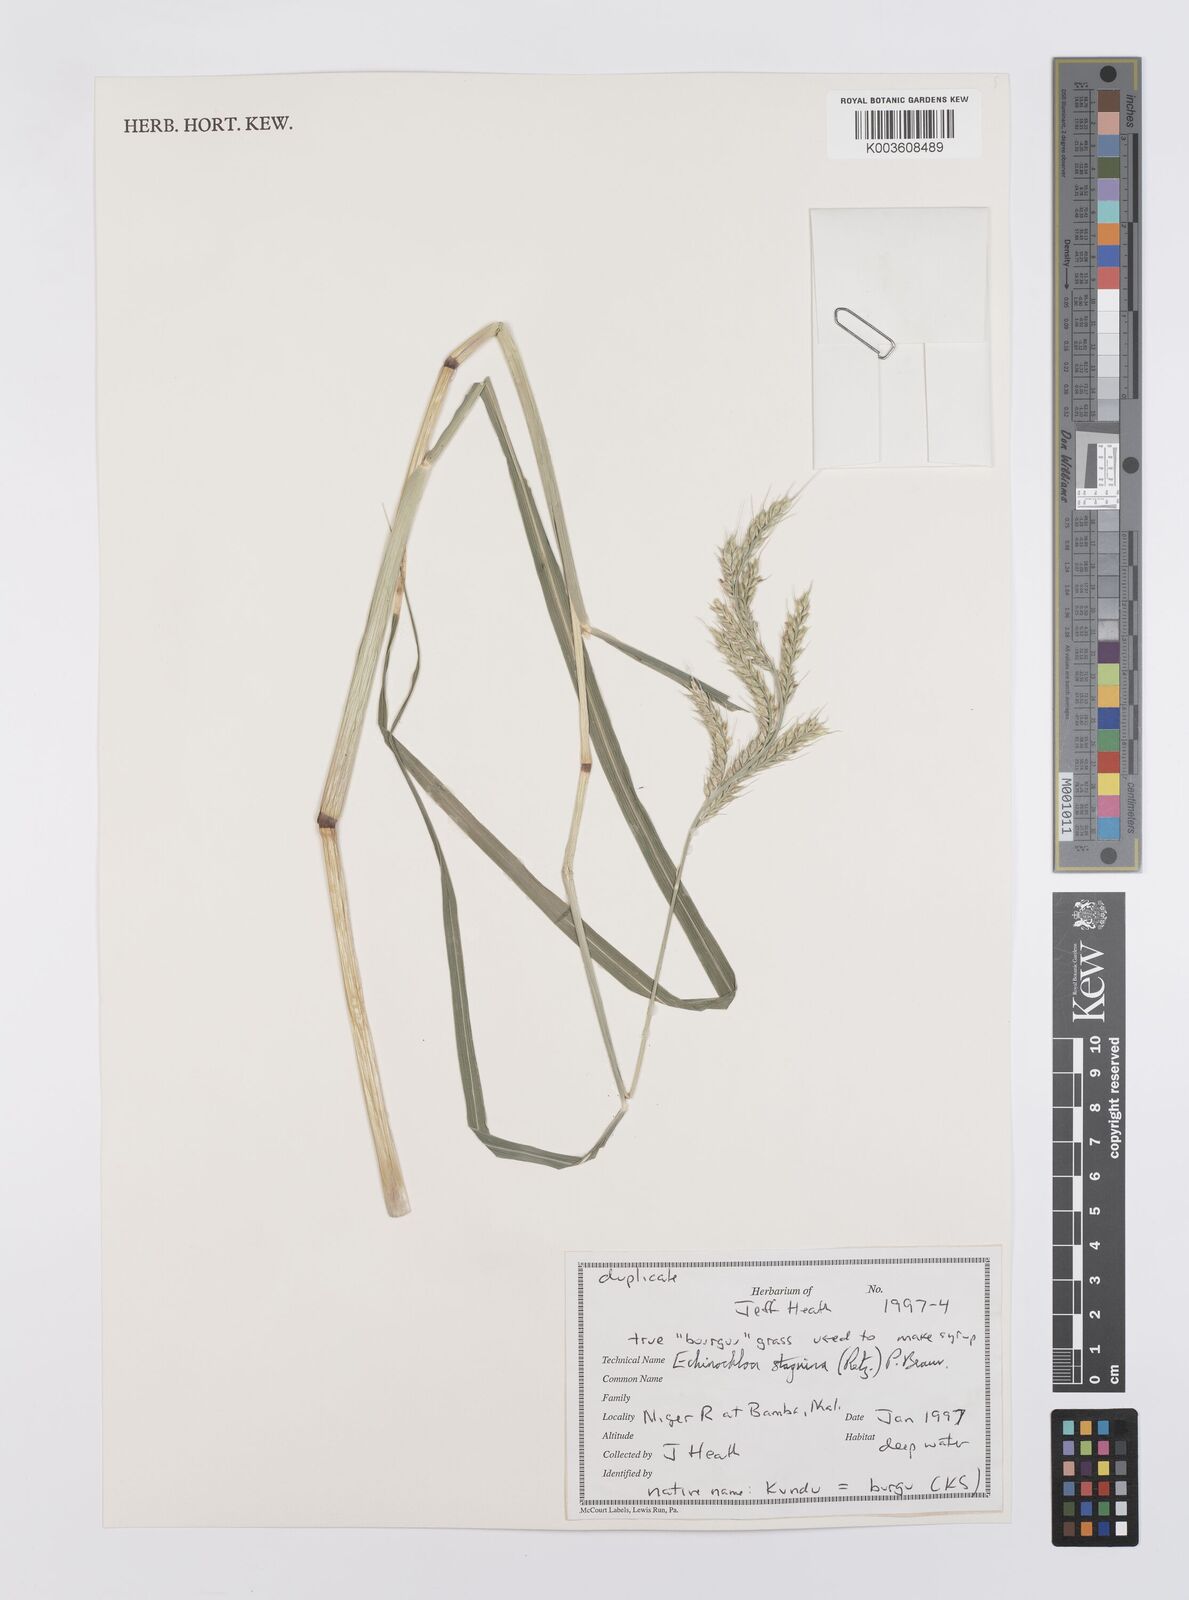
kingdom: Plantae
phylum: Tracheophyta
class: Liliopsida
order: Poales
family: Poaceae
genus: Echinochloa
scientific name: Echinochloa stagnina
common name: Burgu grass
